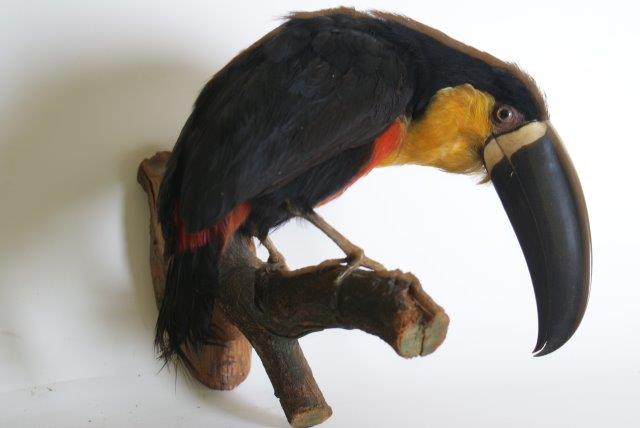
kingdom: Animalia
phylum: Chordata
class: Aves
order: Piciformes
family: Ramphastidae
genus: Ramphastos
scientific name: Ramphastos vitellinus
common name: Channel-billed toucan
